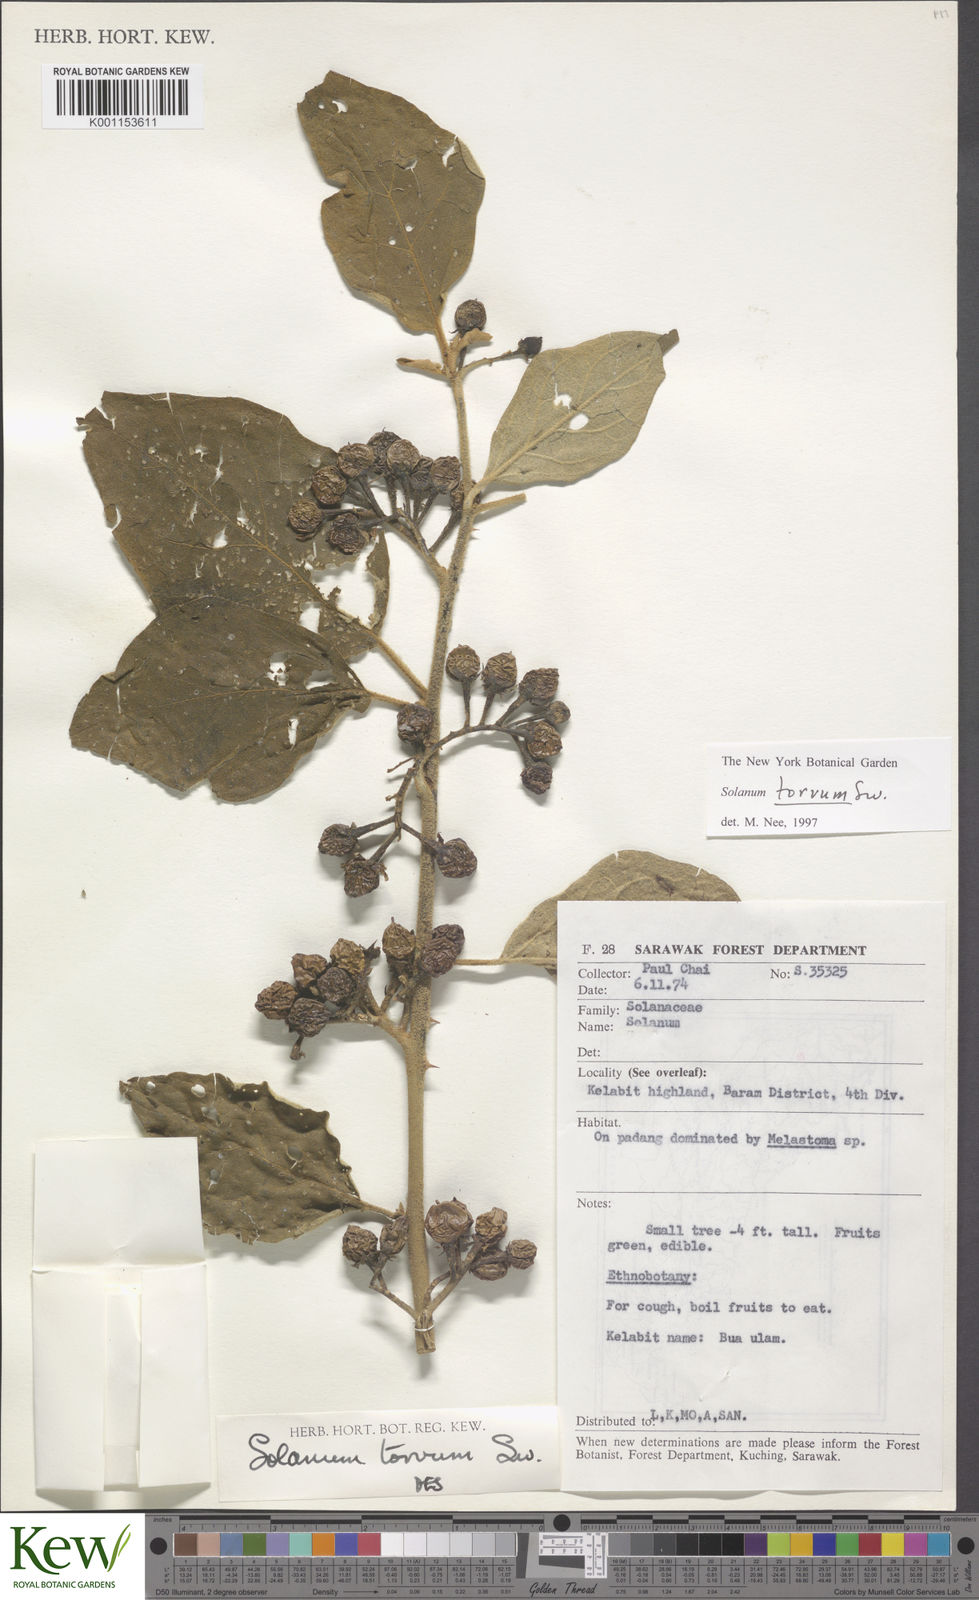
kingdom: Plantae
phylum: Tracheophyta
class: Magnoliopsida
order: Solanales
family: Solanaceae
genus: Solanum
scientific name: Solanum torvum
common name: Turkey berry
